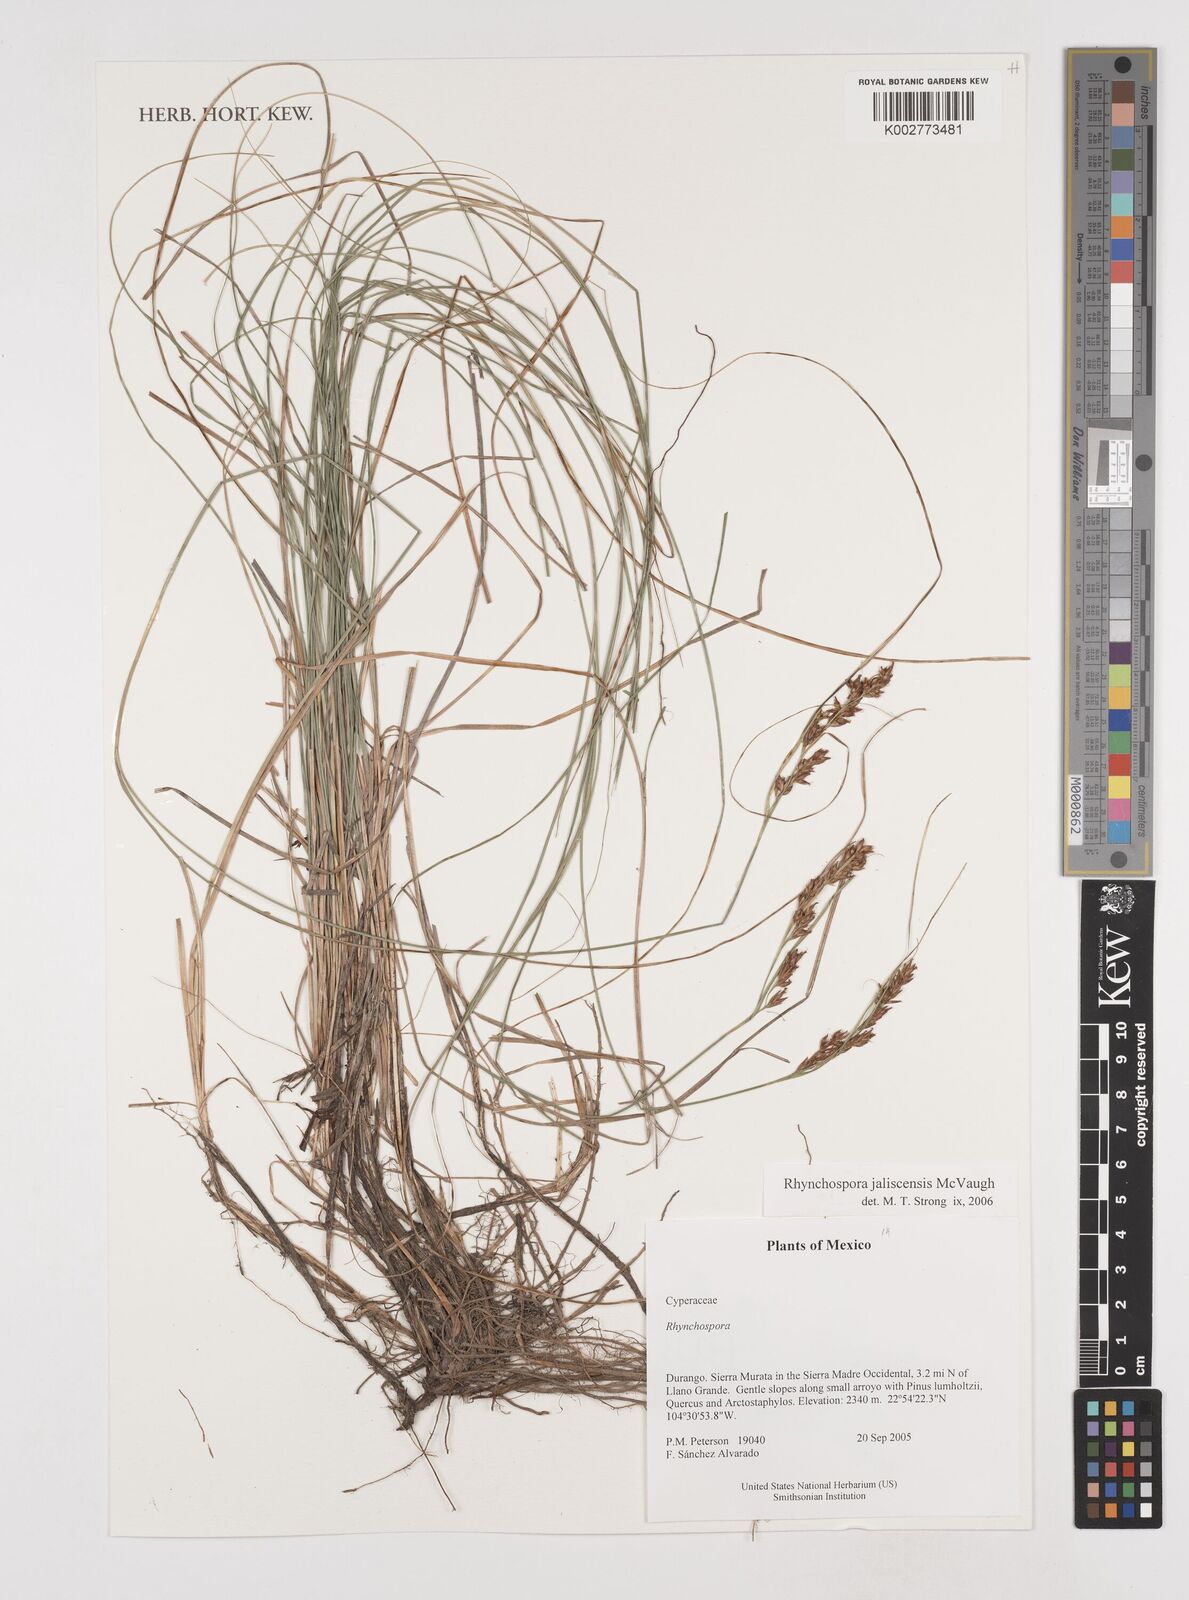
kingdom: Plantae
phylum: Tracheophyta
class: Liliopsida
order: Poales
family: Cyperaceae
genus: Rhynchospora
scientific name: Rhynchospora jaliscensis
